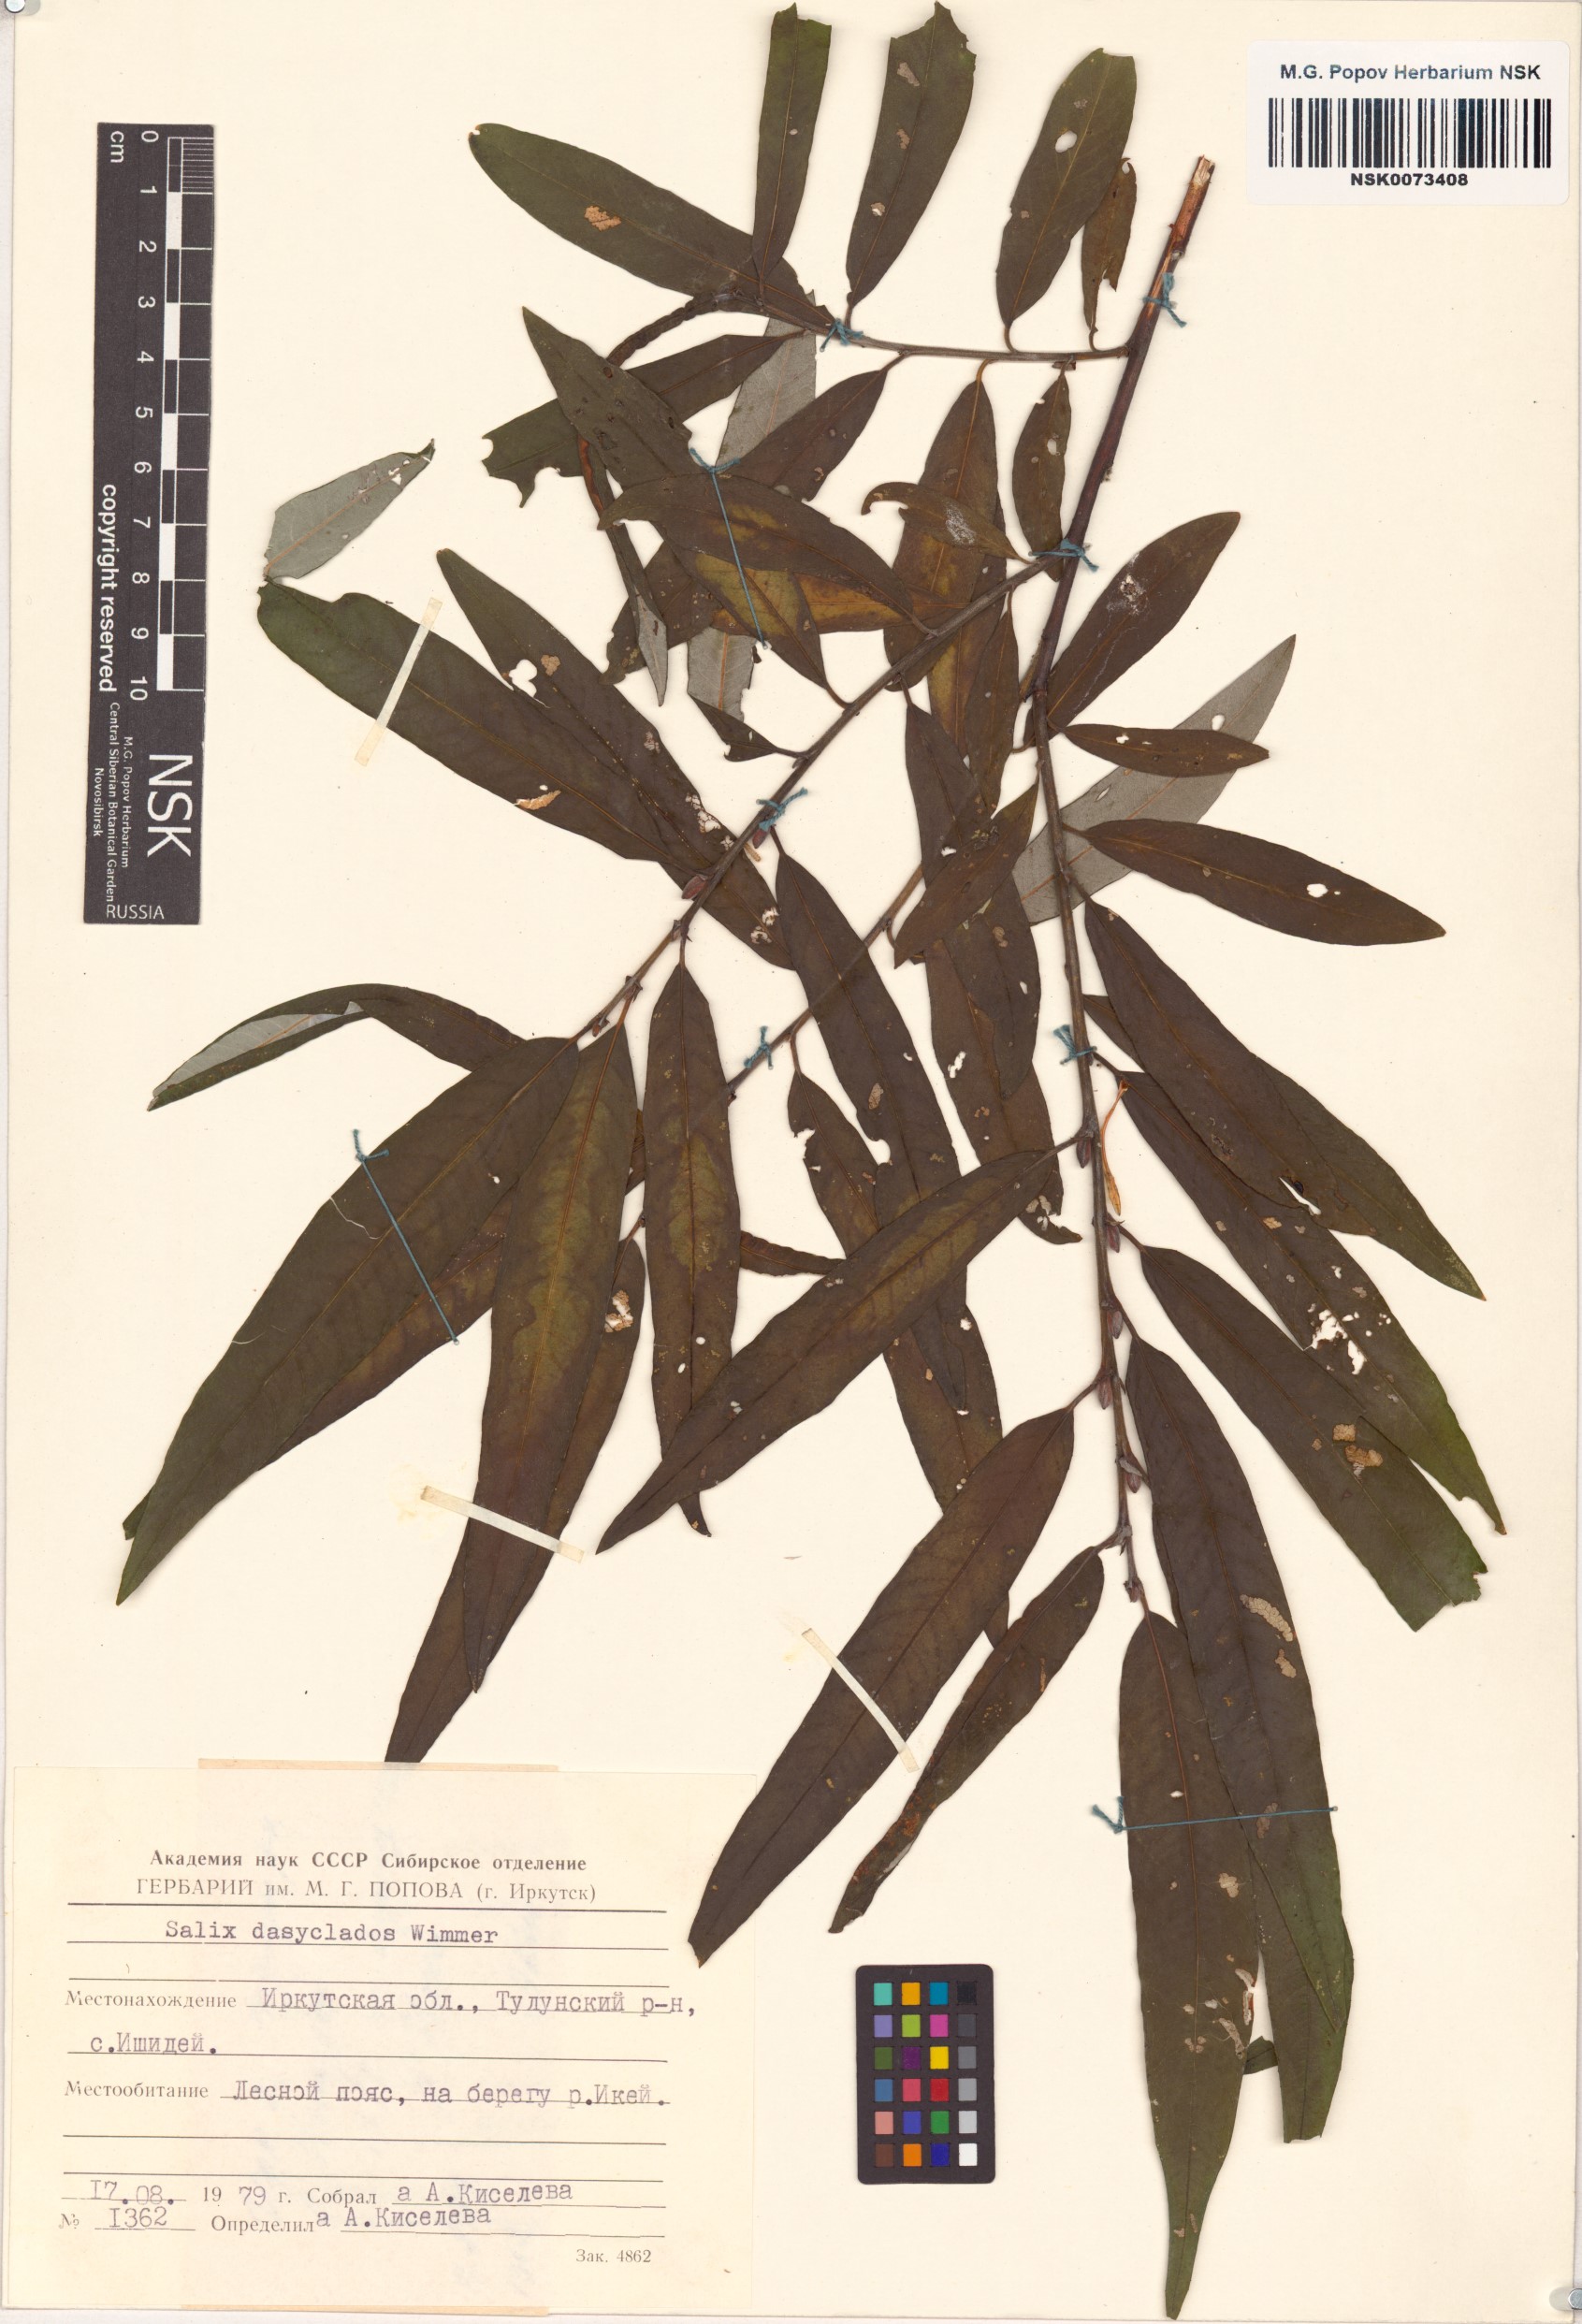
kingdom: Plantae
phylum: Tracheophyta
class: Magnoliopsida
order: Malpighiales
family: Salicaceae
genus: Salix
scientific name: Salix gmelinii
